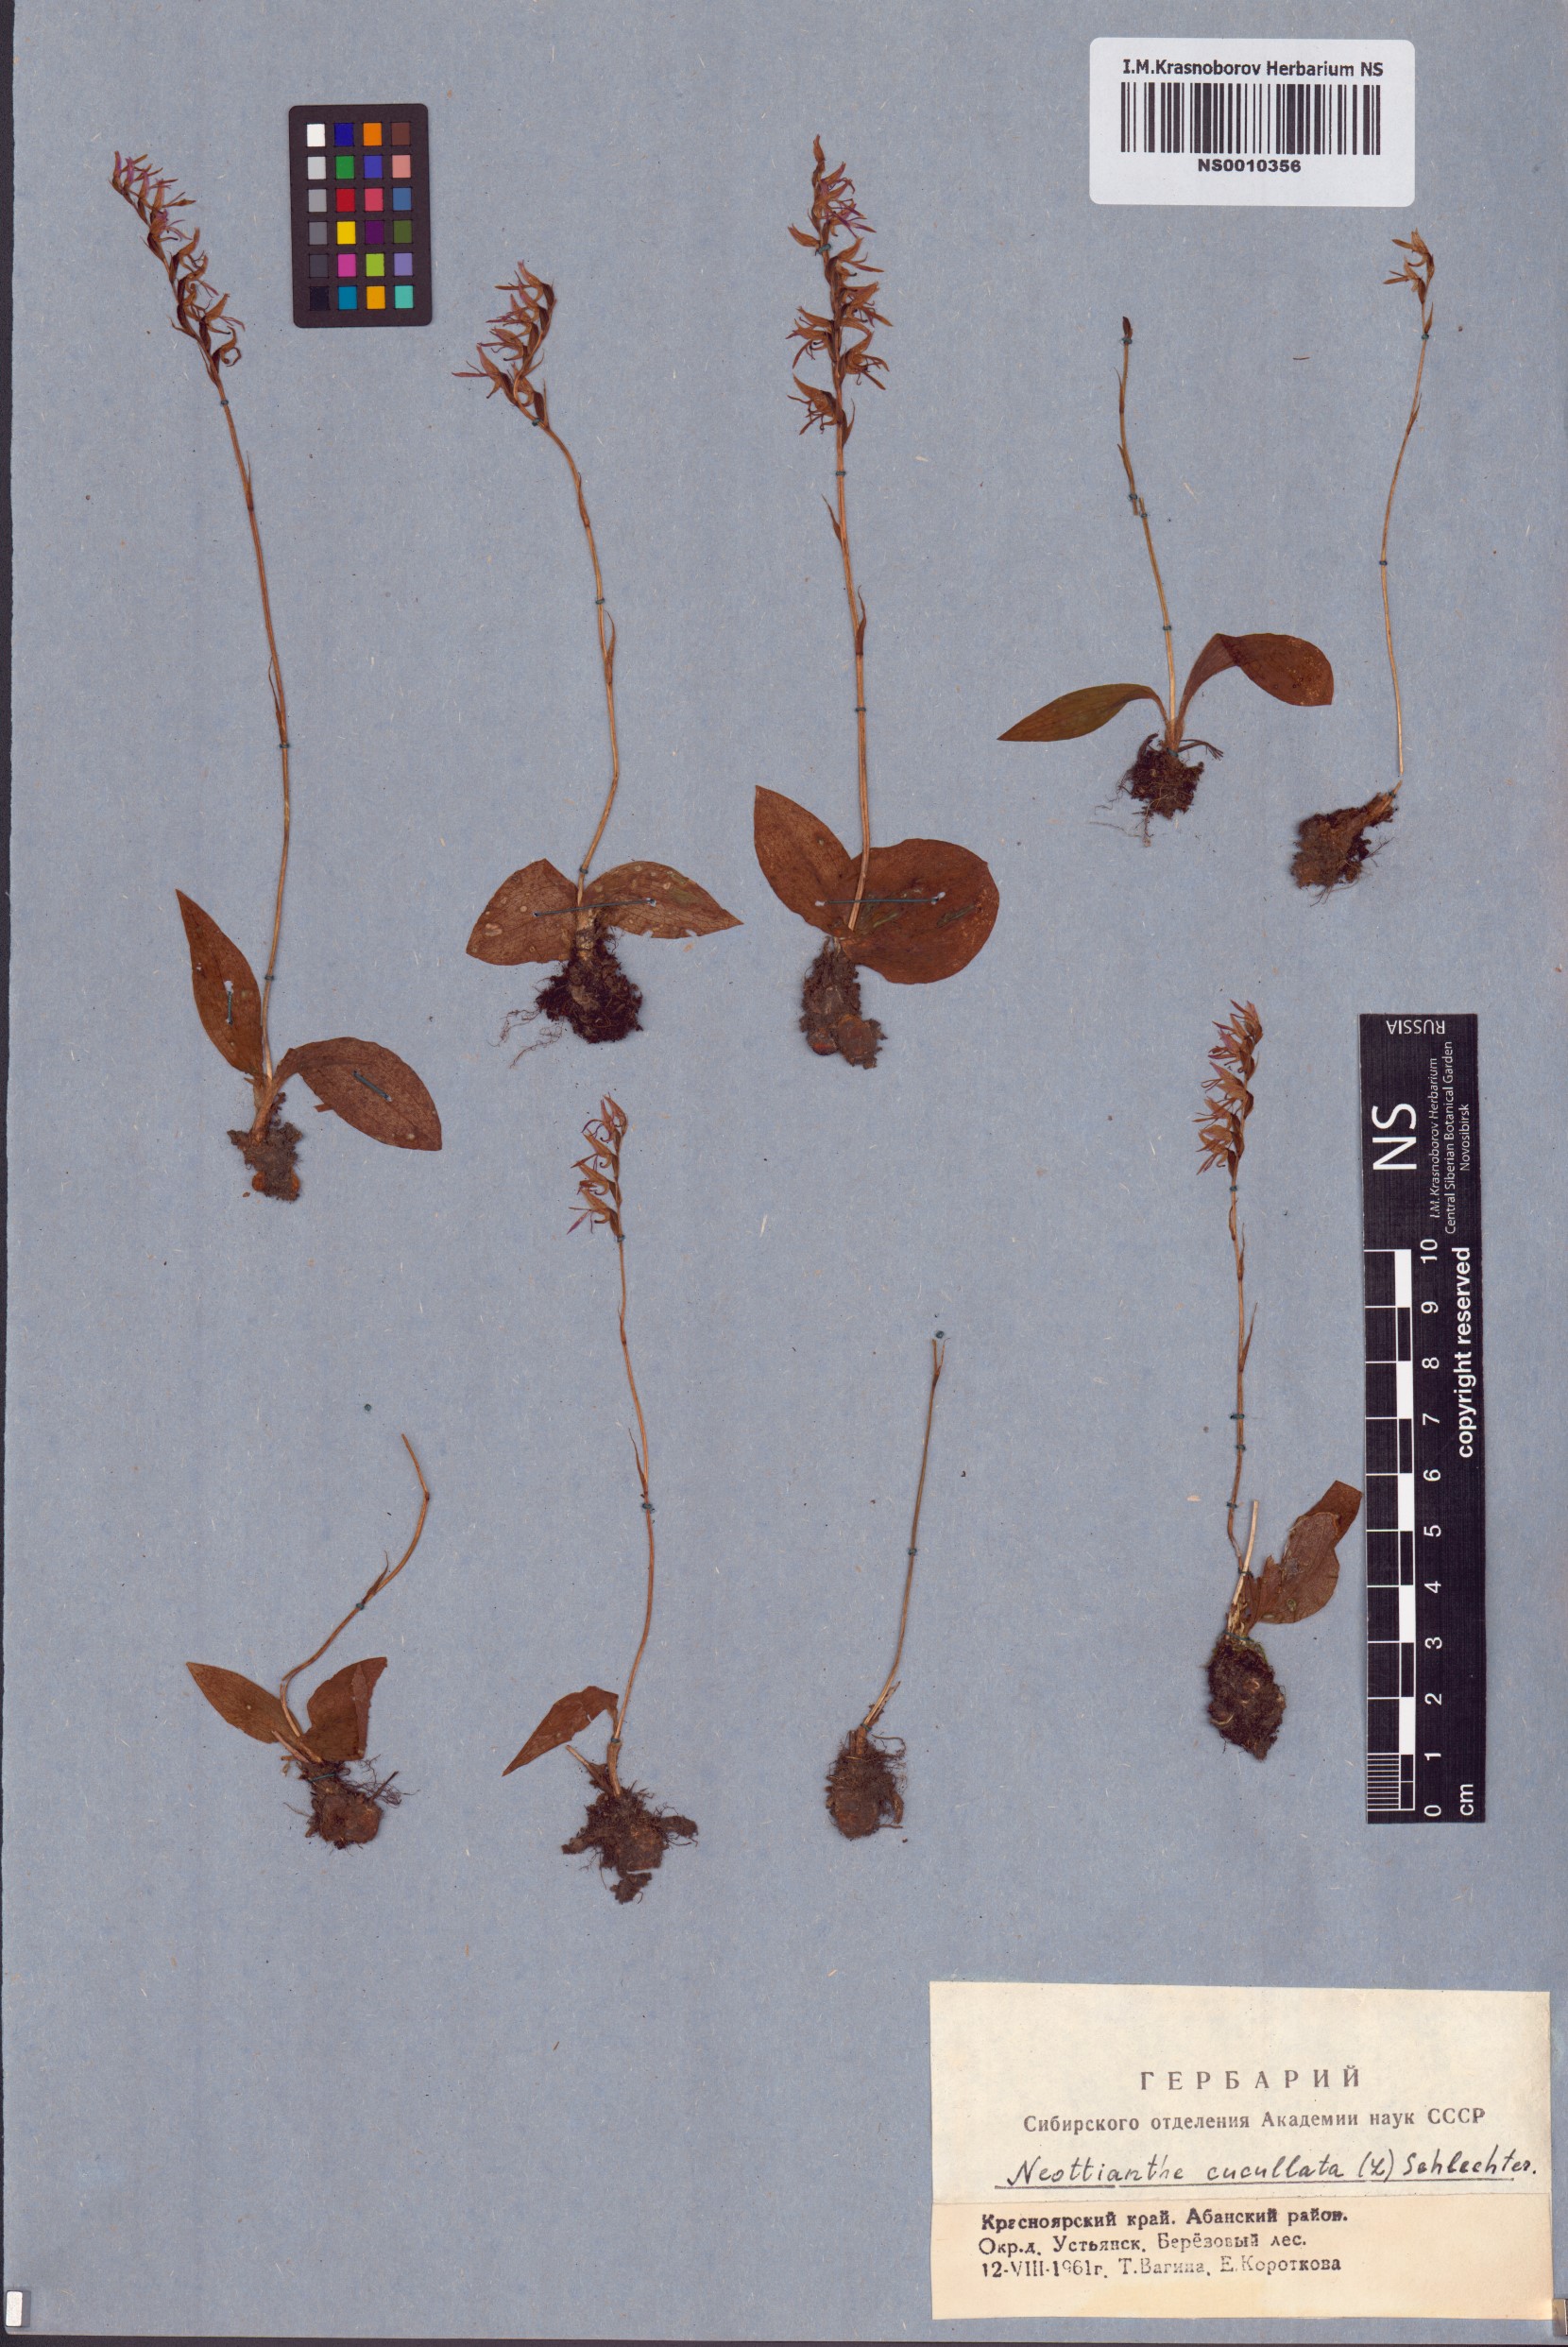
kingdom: Plantae
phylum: Tracheophyta
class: Liliopsida
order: Asparagales
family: Orchidaceae
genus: Hemipilia
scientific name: Hemipilia cucullata
